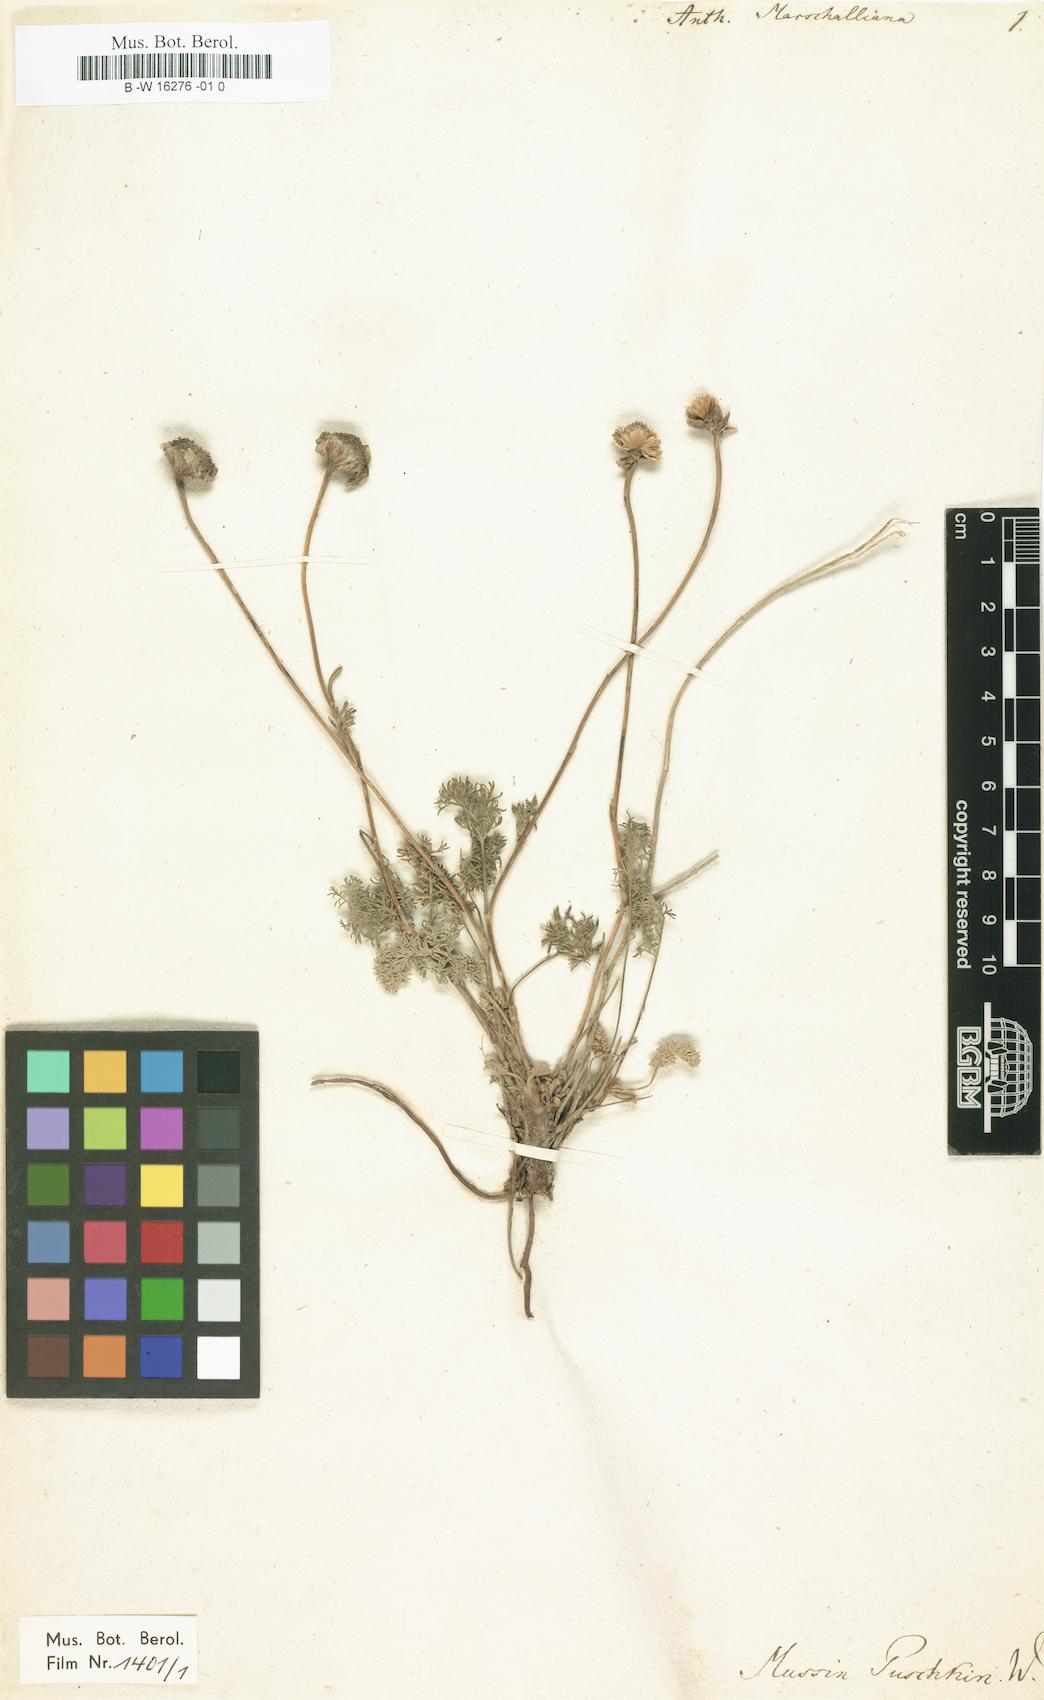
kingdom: Plantae
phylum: Tracheophyta
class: Magnoliopsida
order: Asterales
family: Asteraceae
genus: Archanthemis
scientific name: Archanthemis marschalliana
